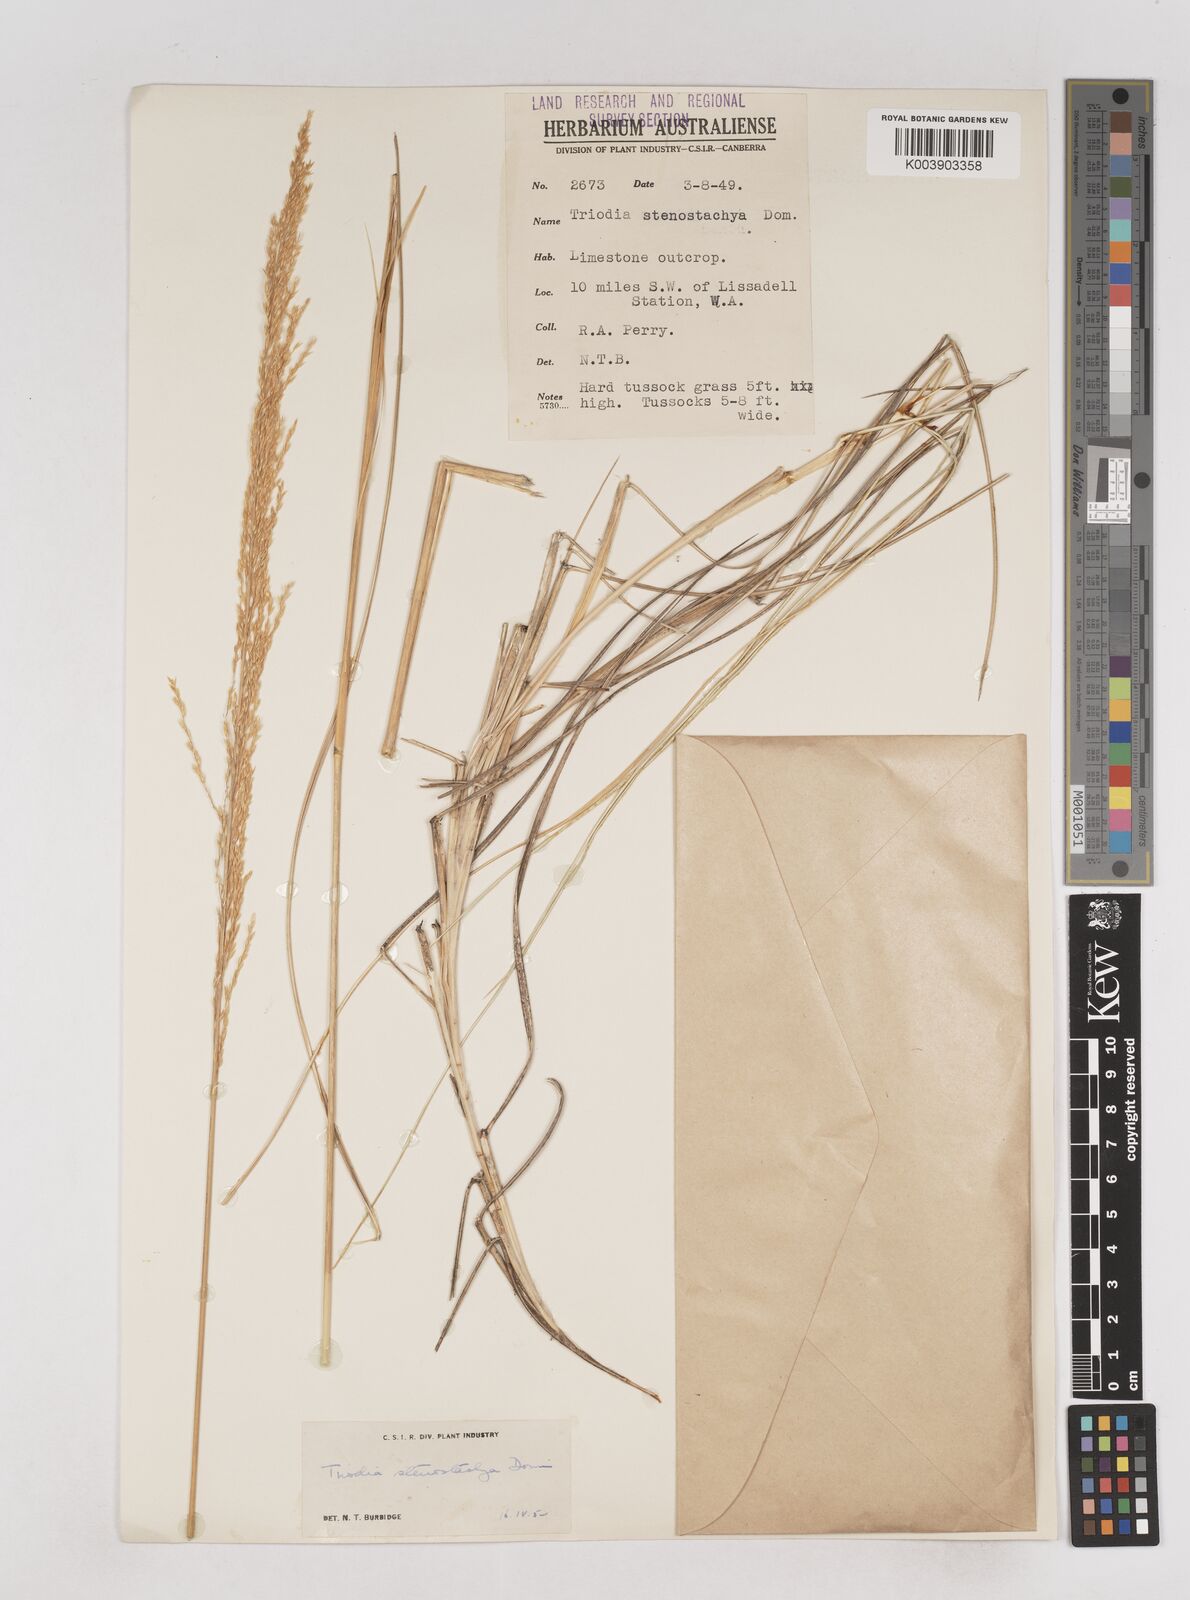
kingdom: Plantae
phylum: Tracheophyta
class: Liliopsida
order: Poales
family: Poaceae
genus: Triodia
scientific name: Triodia stenostachya
